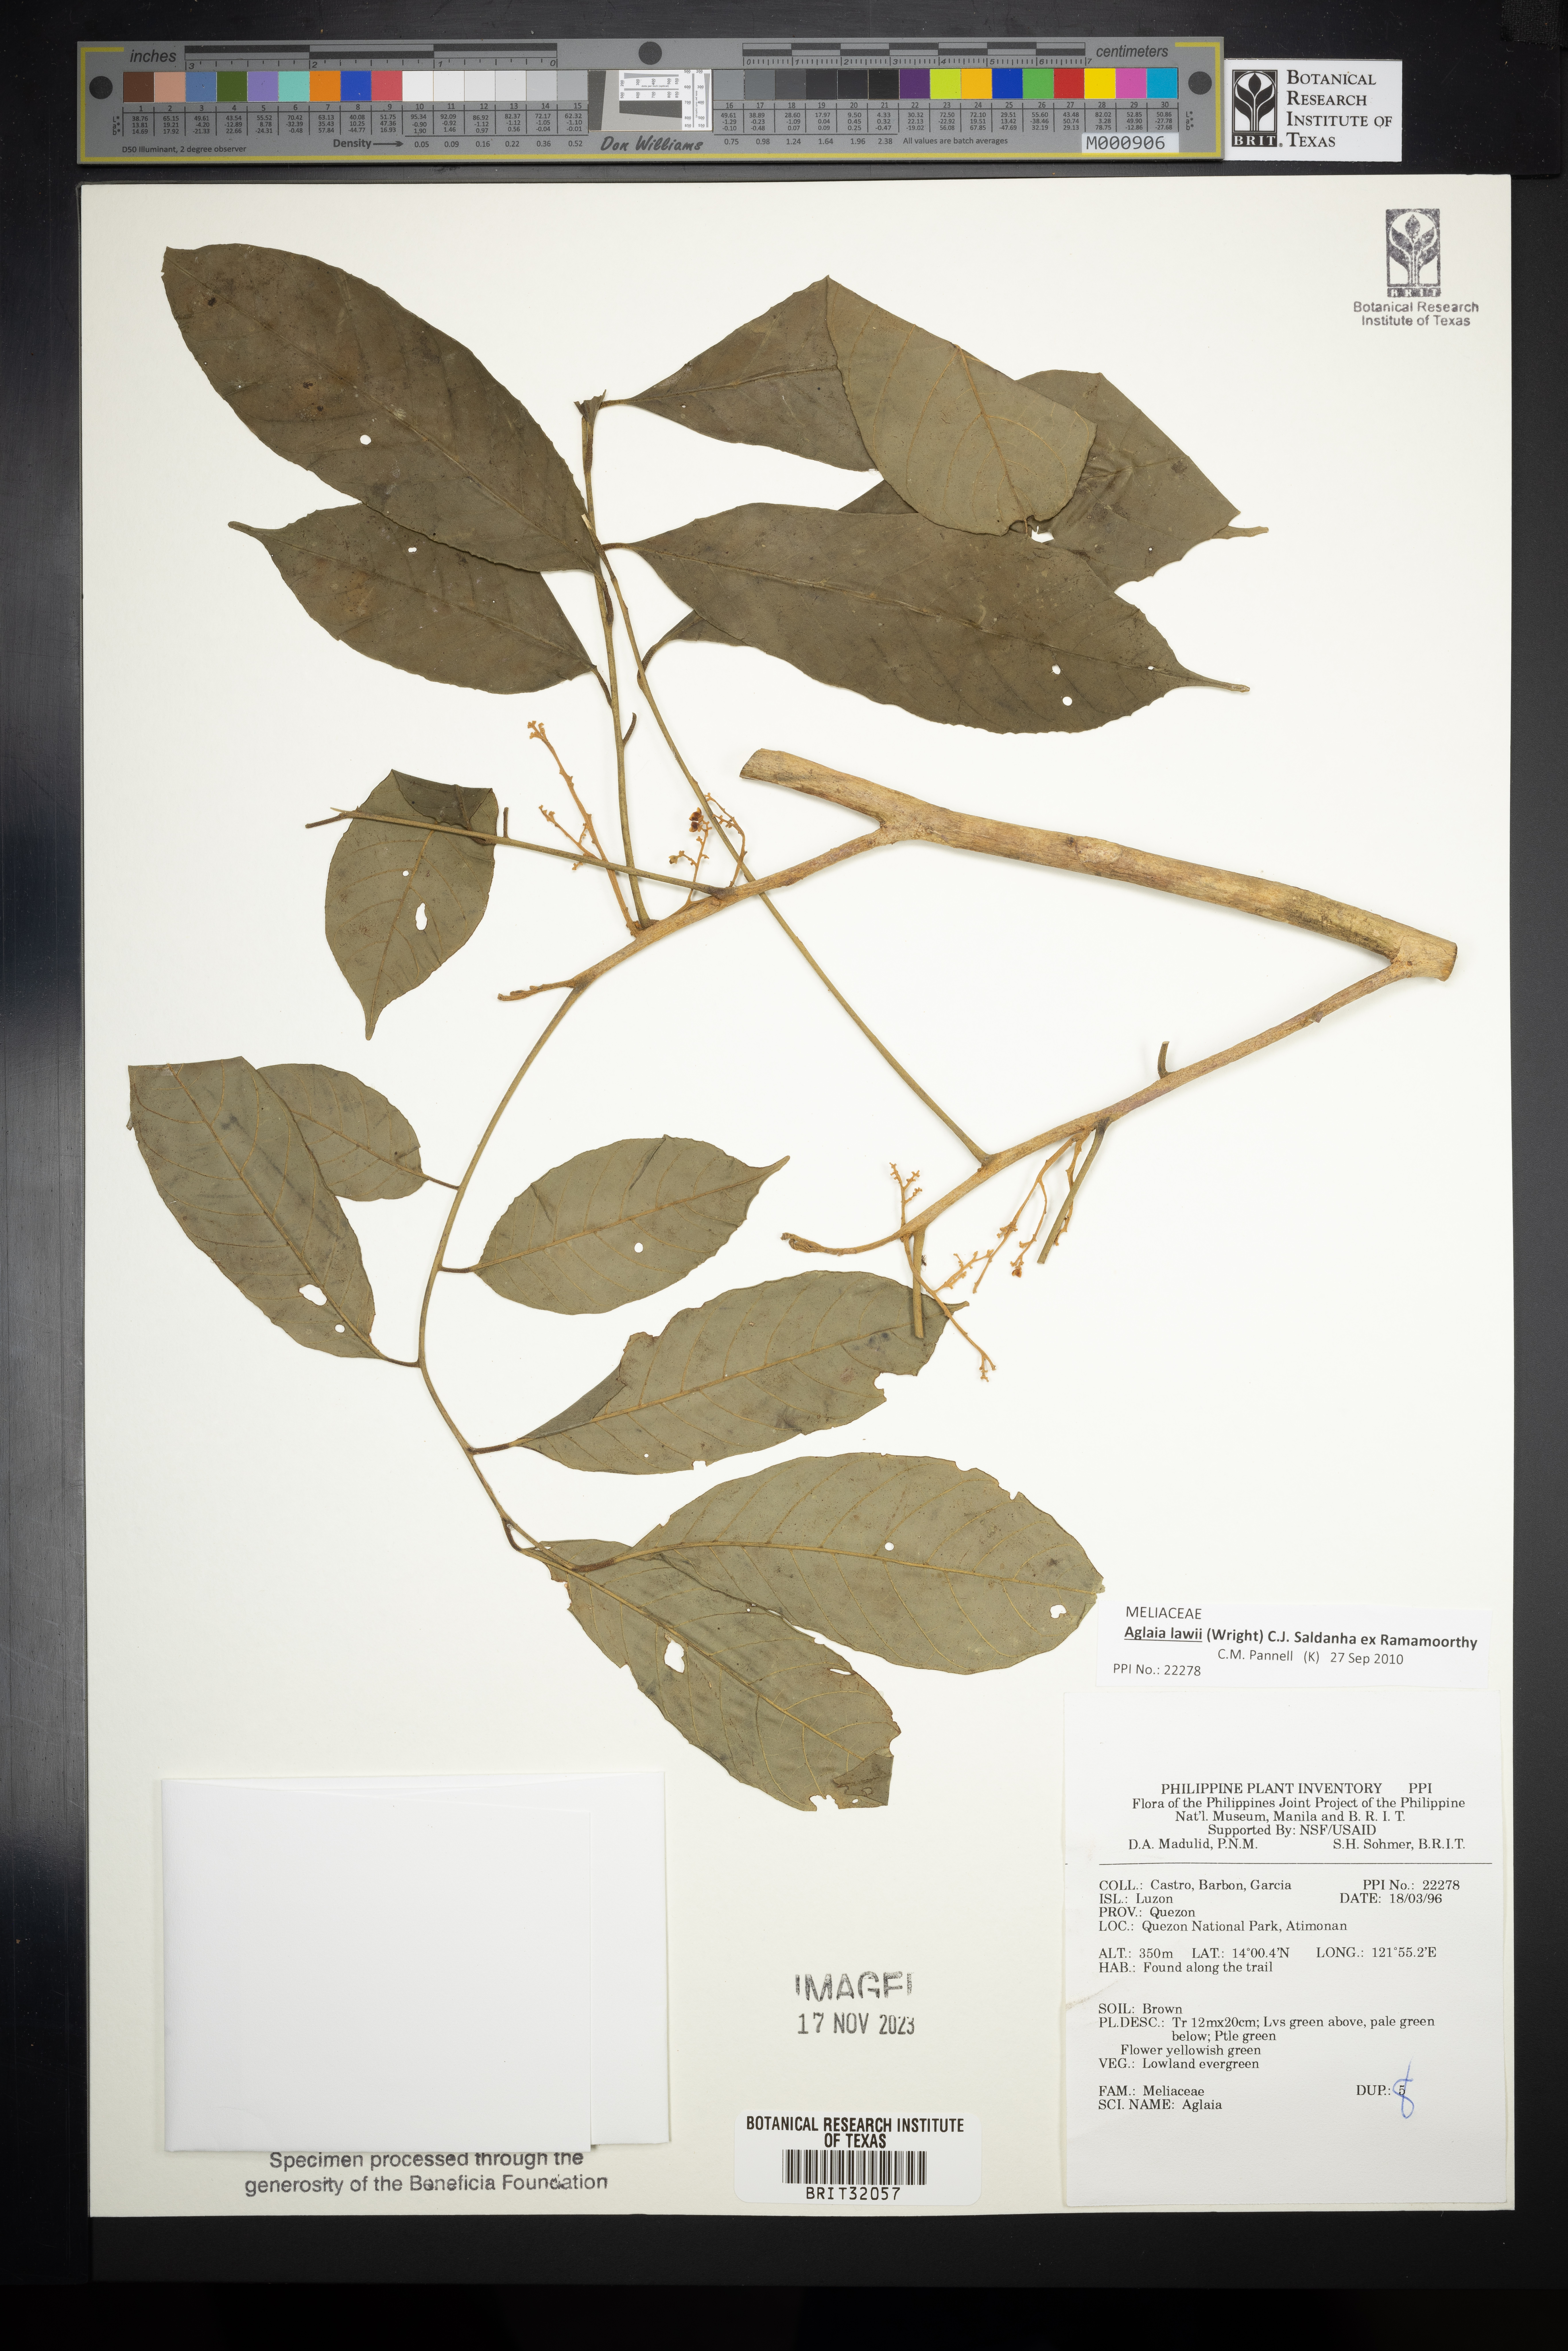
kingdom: Plantae
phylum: Tracheophyta
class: Magnoliopsida
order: Sapindales
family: Meliaceae
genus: Aglaia
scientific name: Aglaia
